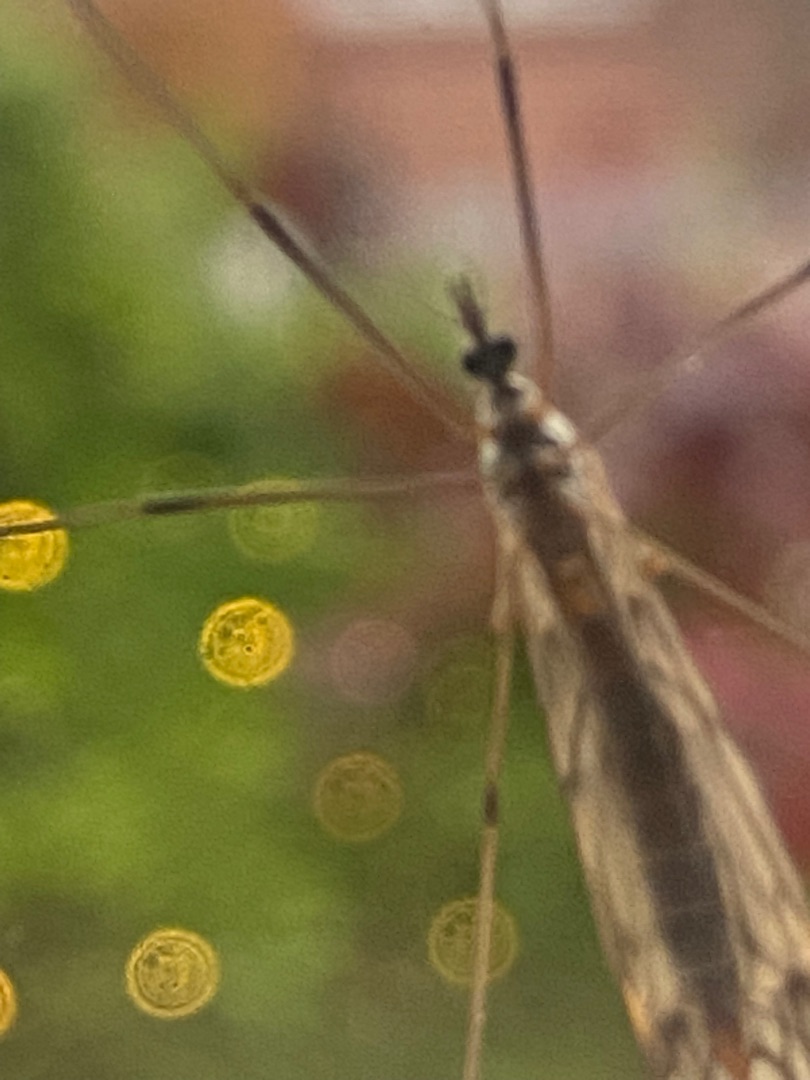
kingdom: Animalia
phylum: Arthropoda
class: Insecta
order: Diptera
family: Tipulidae
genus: Tipula
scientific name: Tipula
